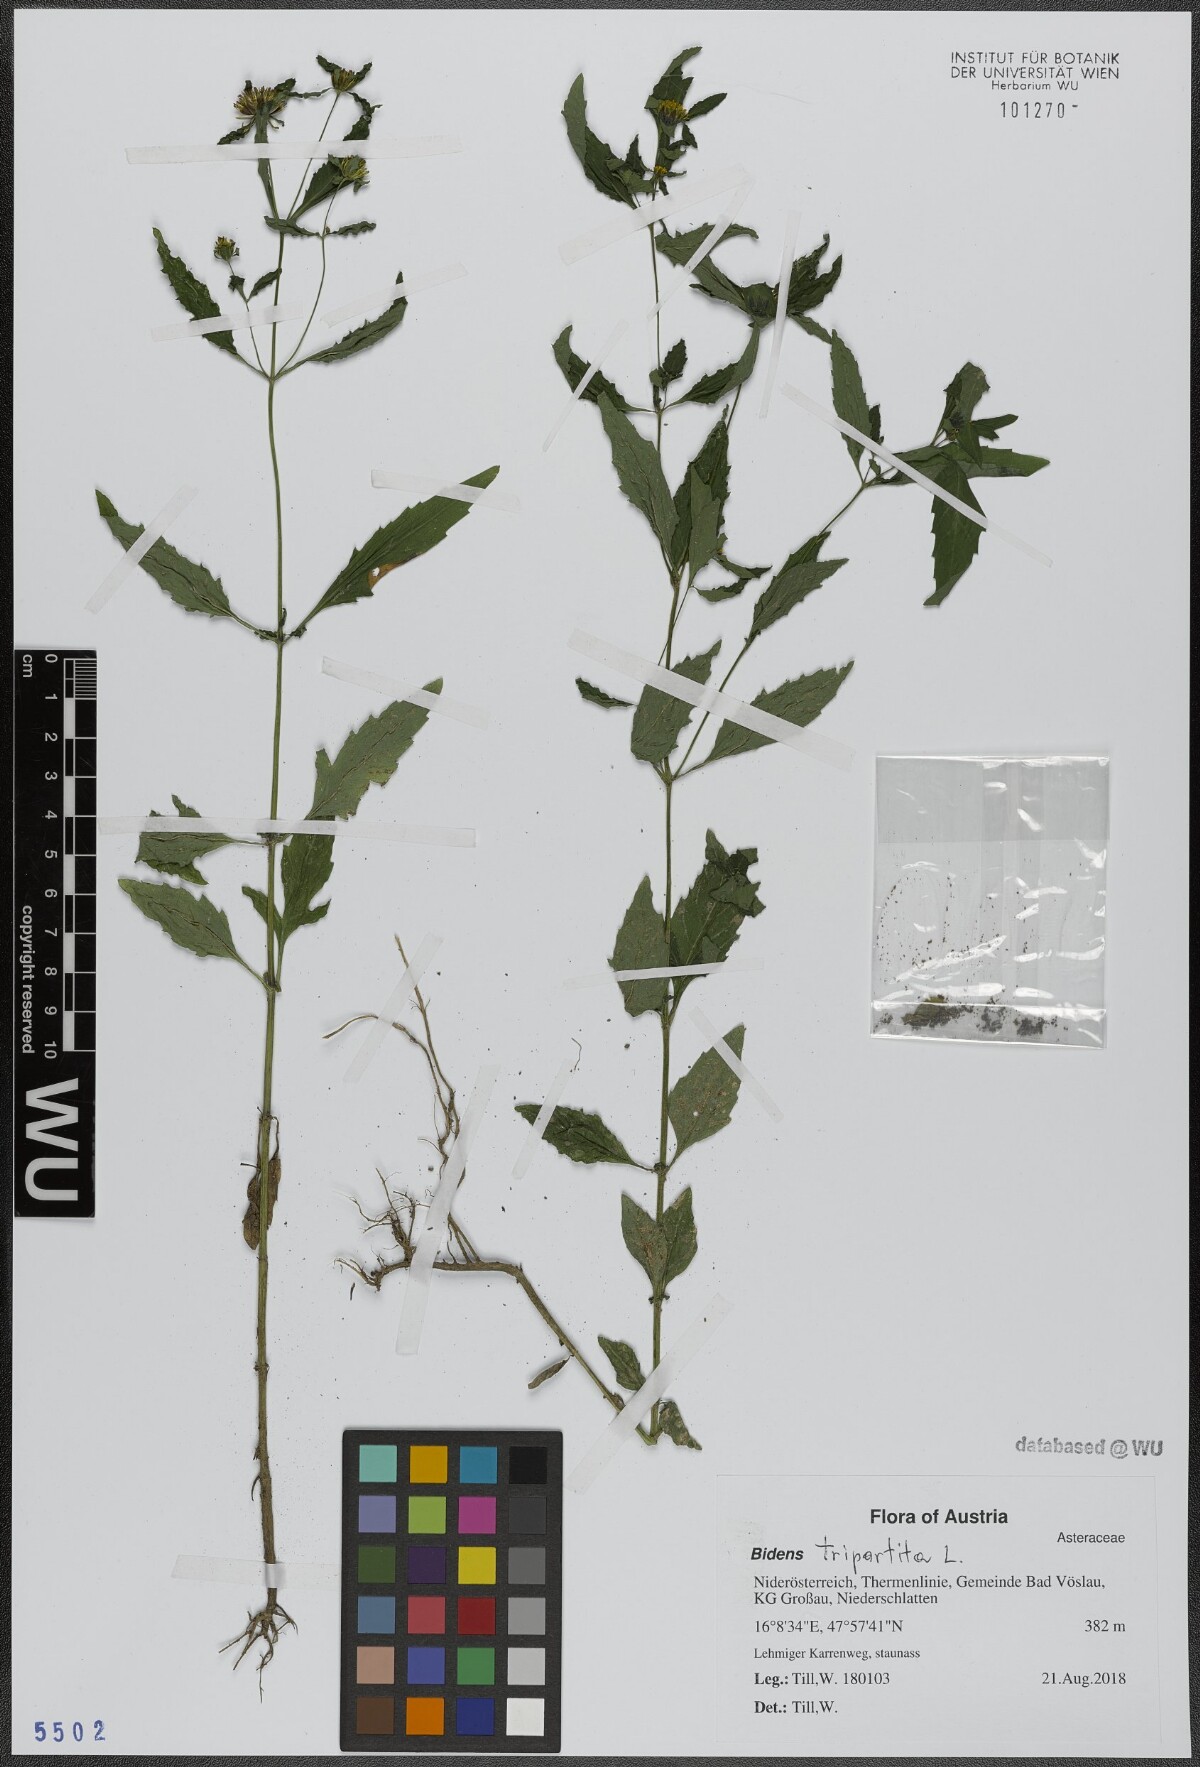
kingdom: Plantae
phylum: Tracheophyta
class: Magnoliopsida
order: Asterales
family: Asteraceae
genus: Bidens
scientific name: Bidens tripartita
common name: Trifid bur-marigold
